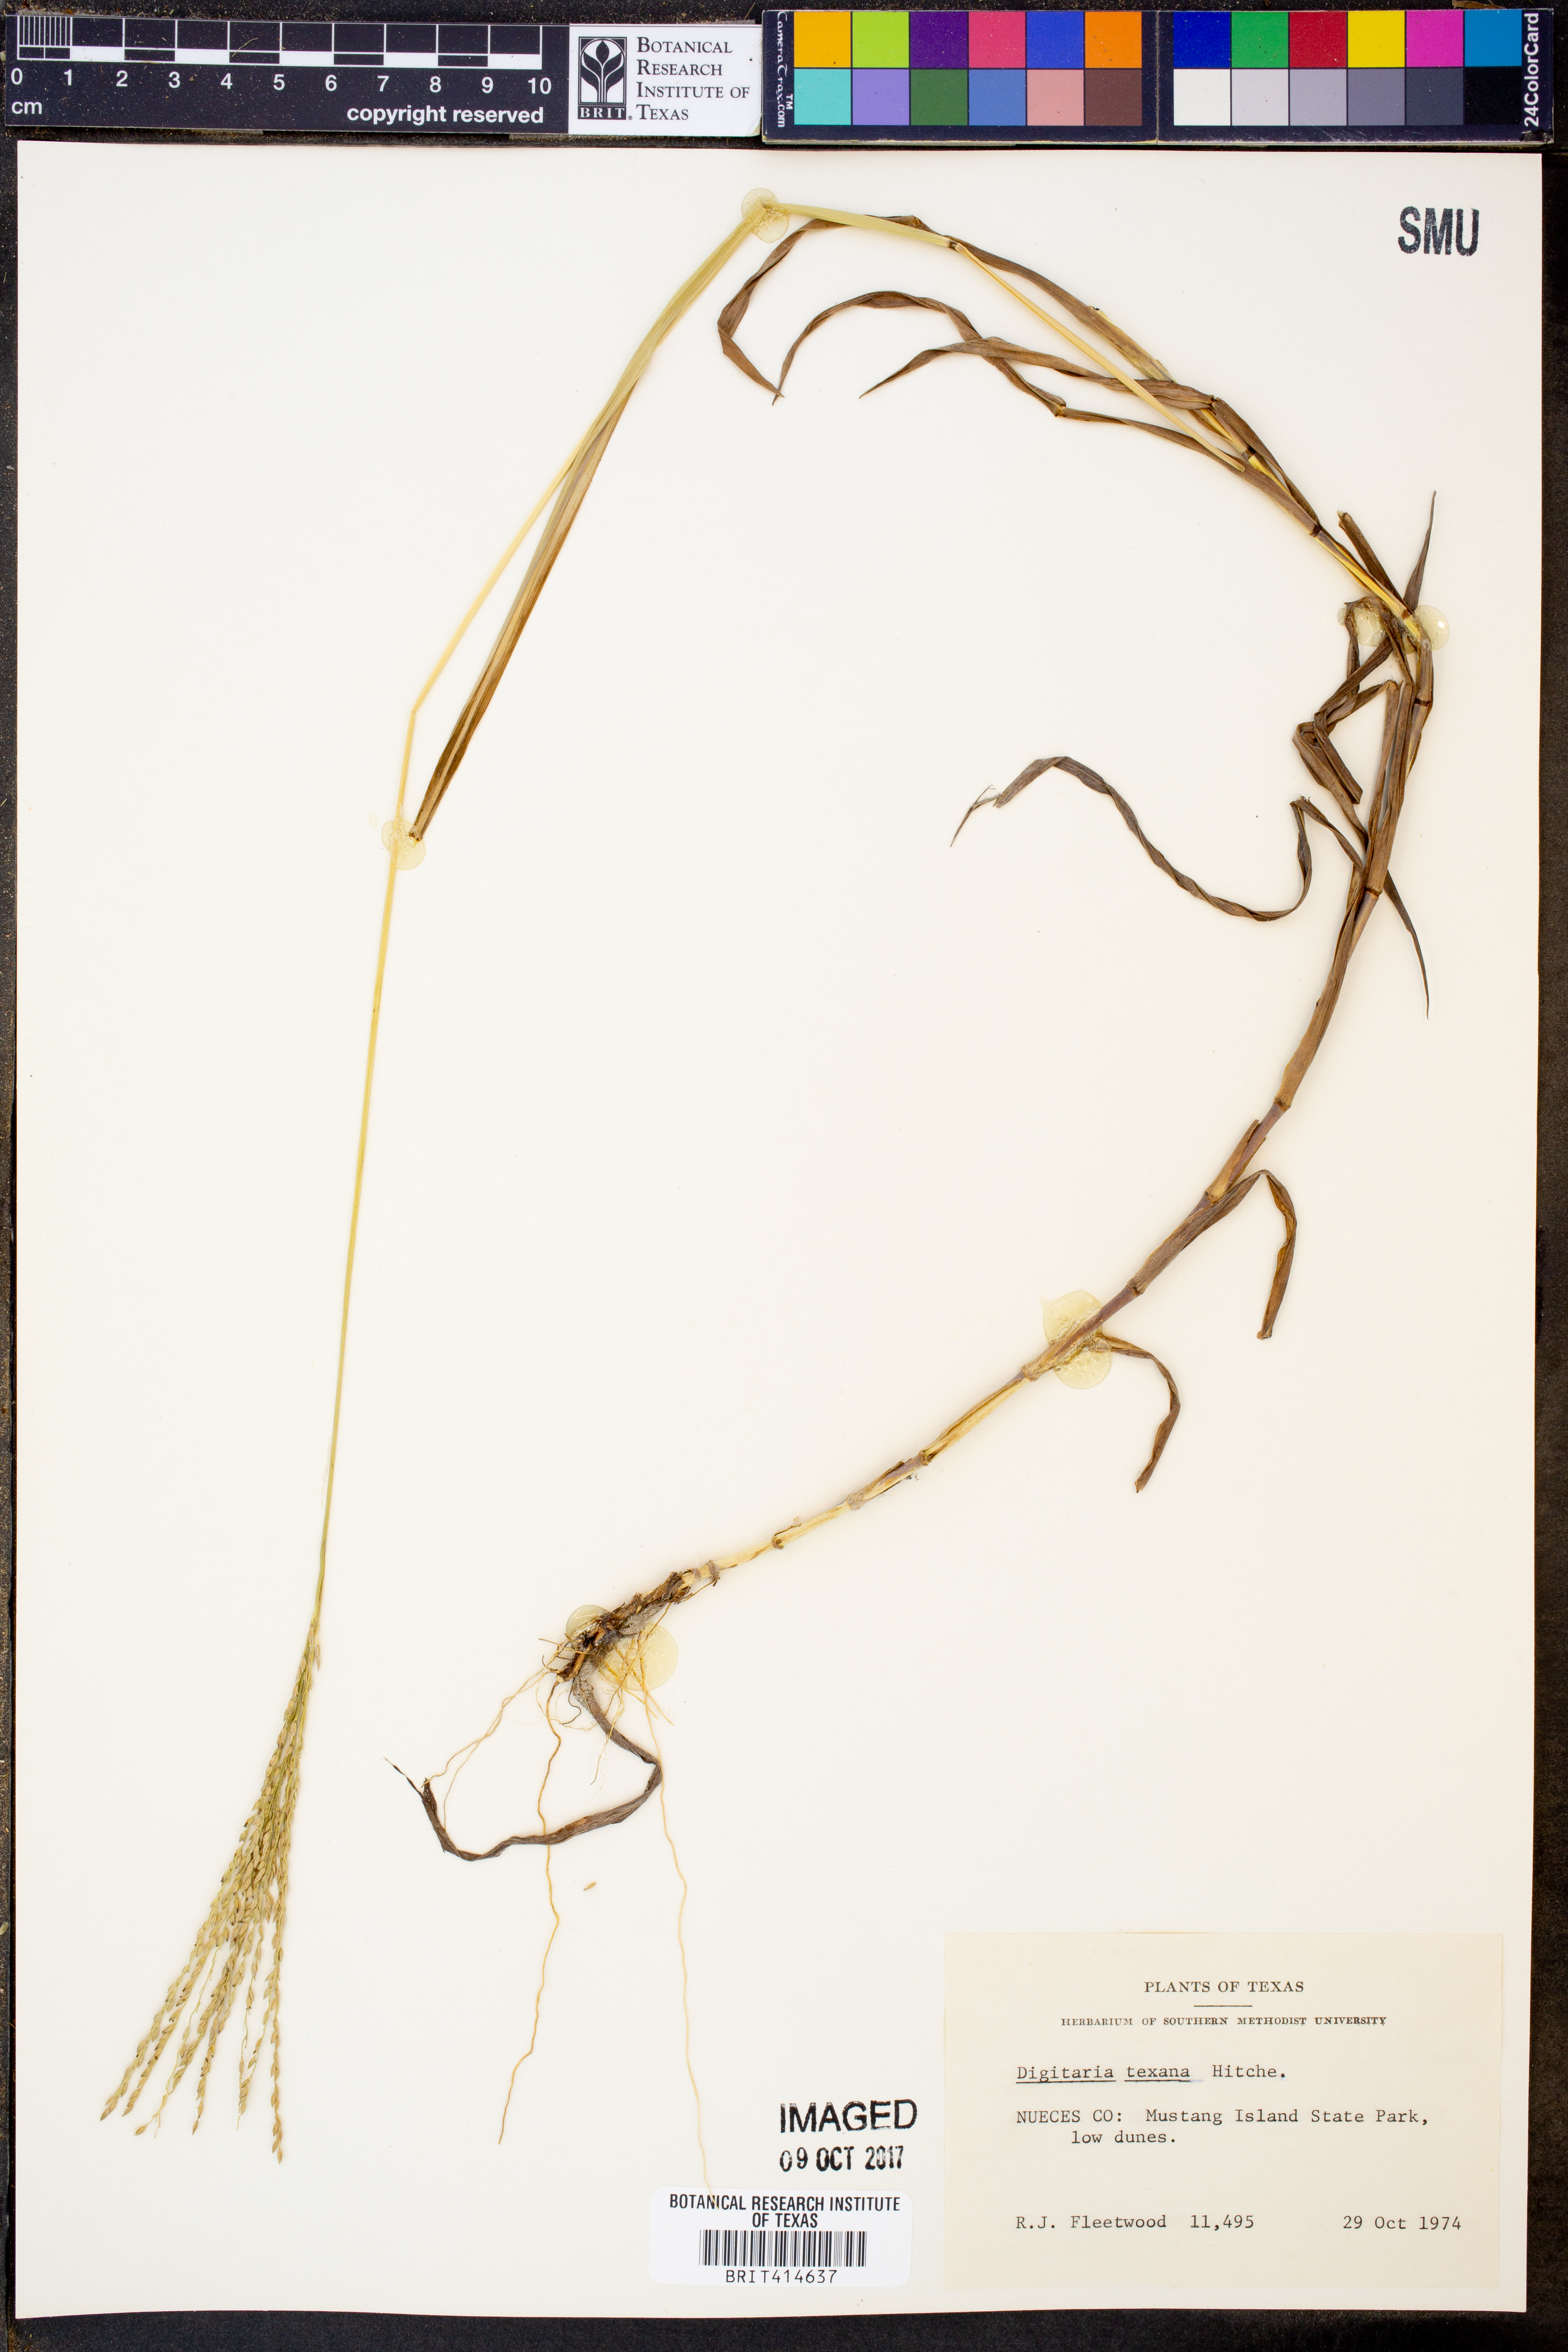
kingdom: Plantae
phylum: Tracheophyta
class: Liliopsida
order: Poales
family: Poaceae
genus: Digitaria
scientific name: Digitaria texana
